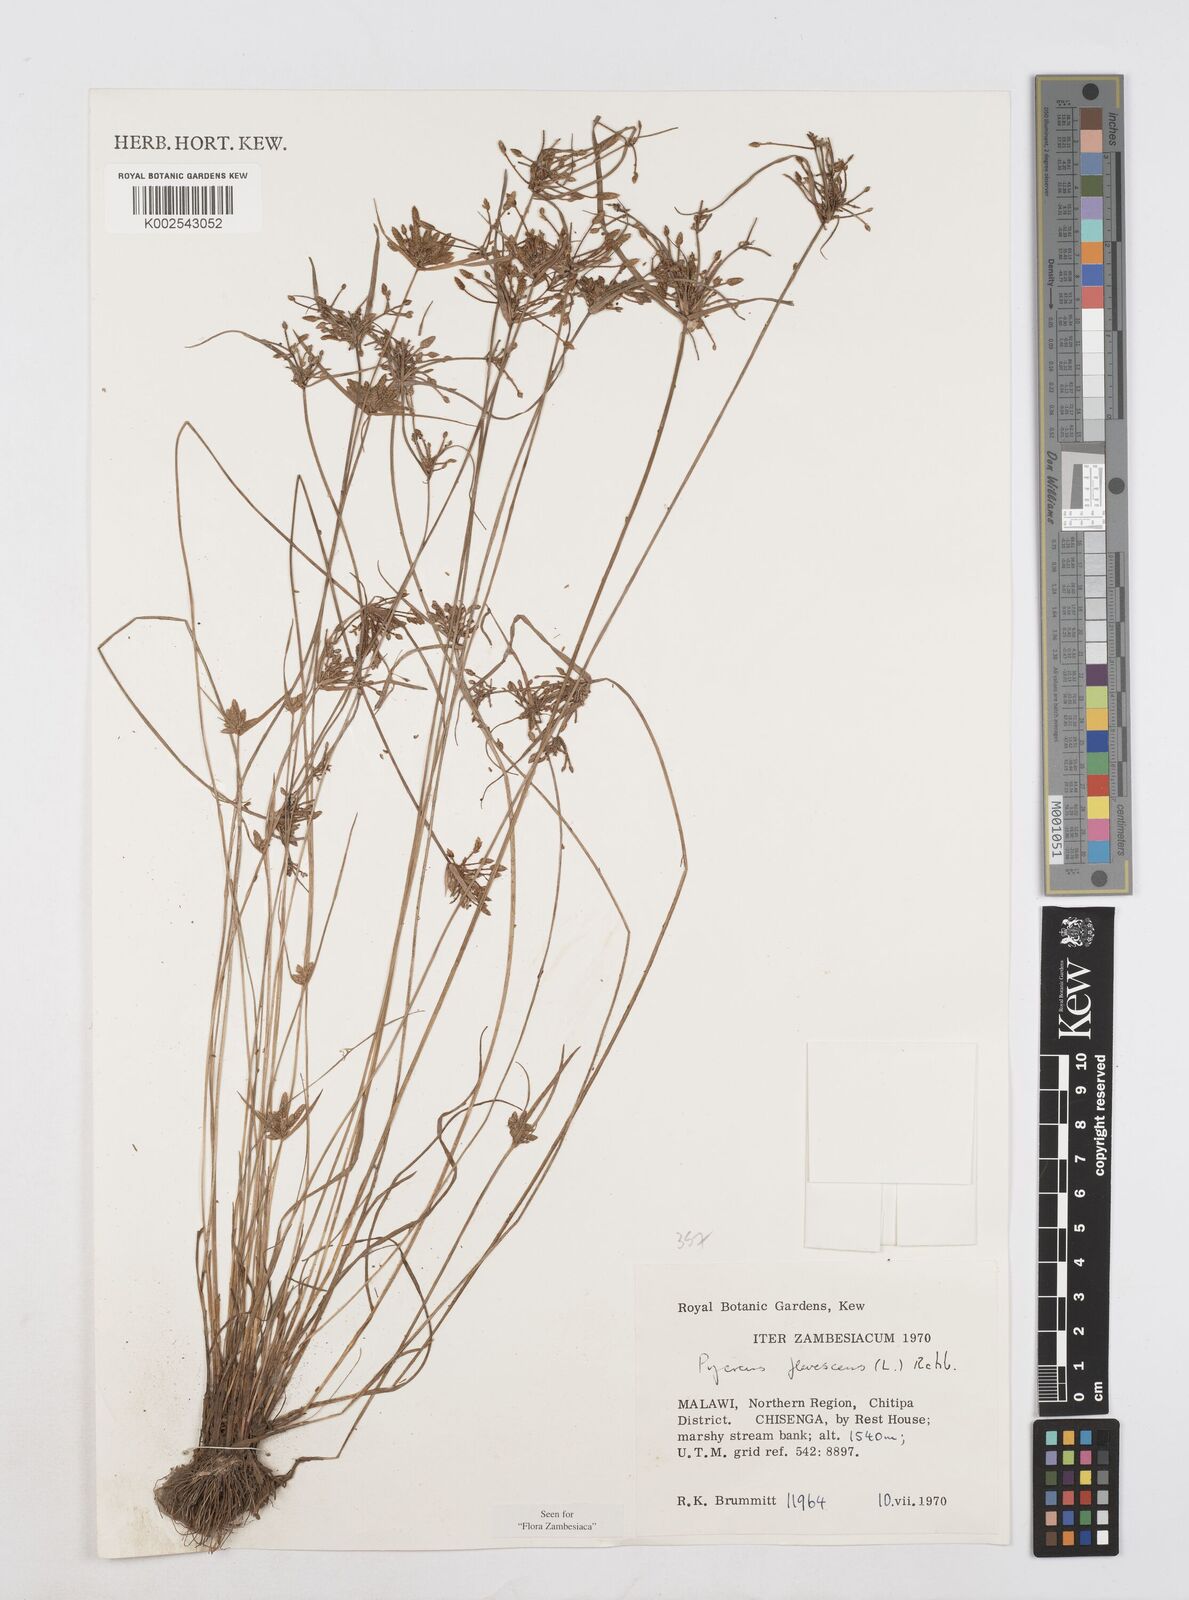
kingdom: Plantae
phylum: Tracheophyta
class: Liliopsida
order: Poales
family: Cyperaceae
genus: Cyperus
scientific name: Cyperus flavescens
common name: Yellow galingale
